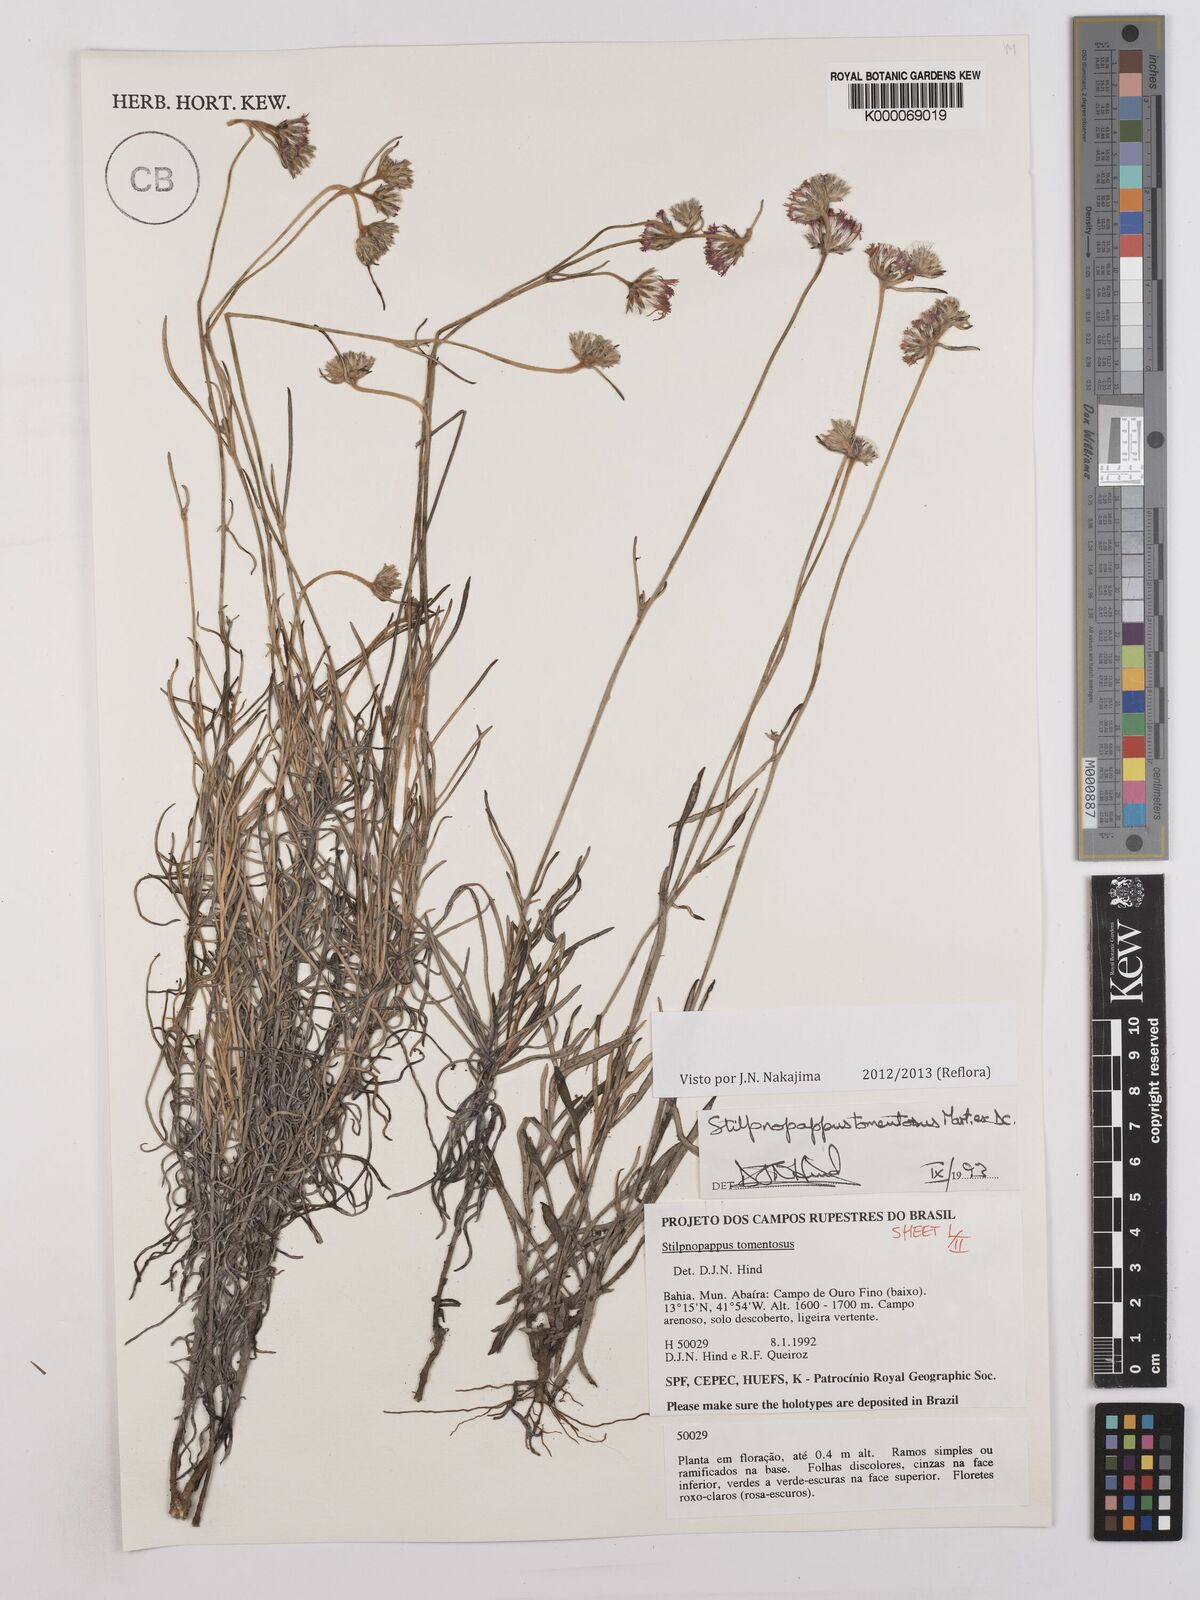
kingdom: Plantae
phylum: Tracheophyta
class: Magnoliopsida
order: Asterales
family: Asteraceae
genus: Stilpnopappus
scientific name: Stilpnopappus tomentosus
